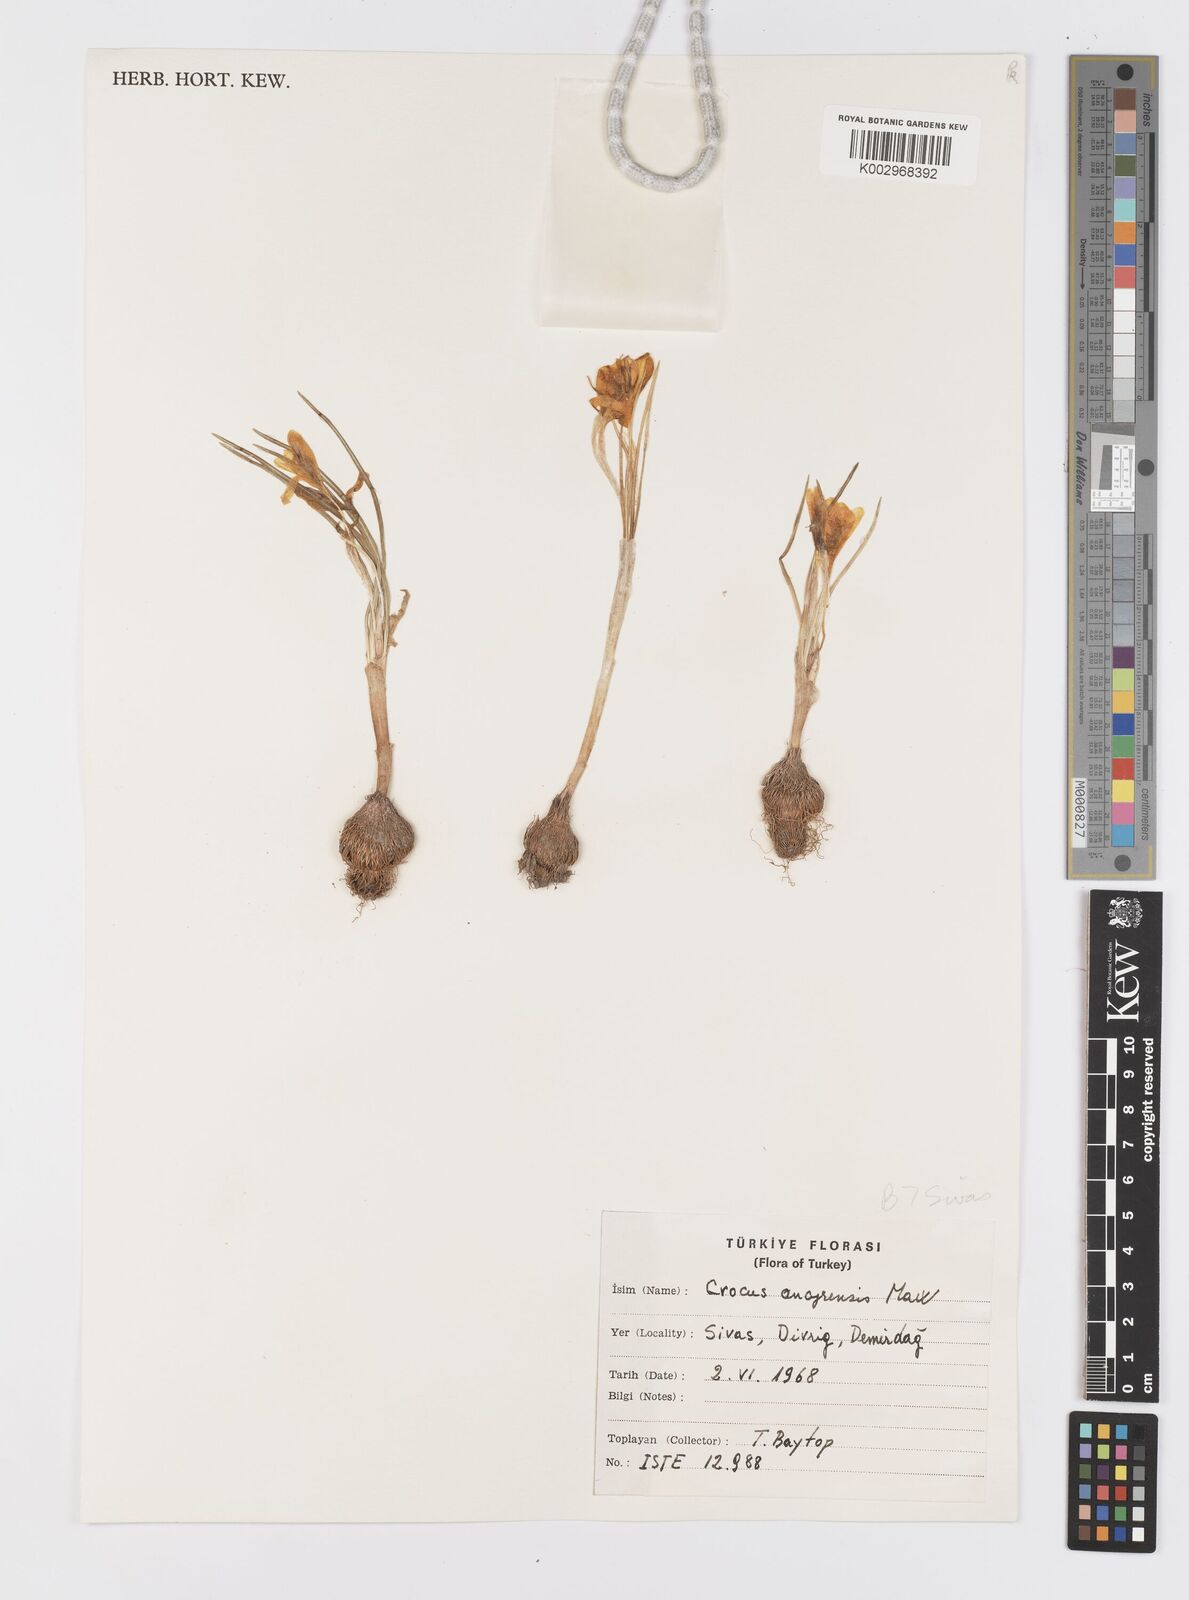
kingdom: Plantae
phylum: Tracheophyta
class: Liliopsida
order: Asparagales
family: Iridaceae
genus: Crocus
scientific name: Crocus ancyrensis
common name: Ankara crocus
